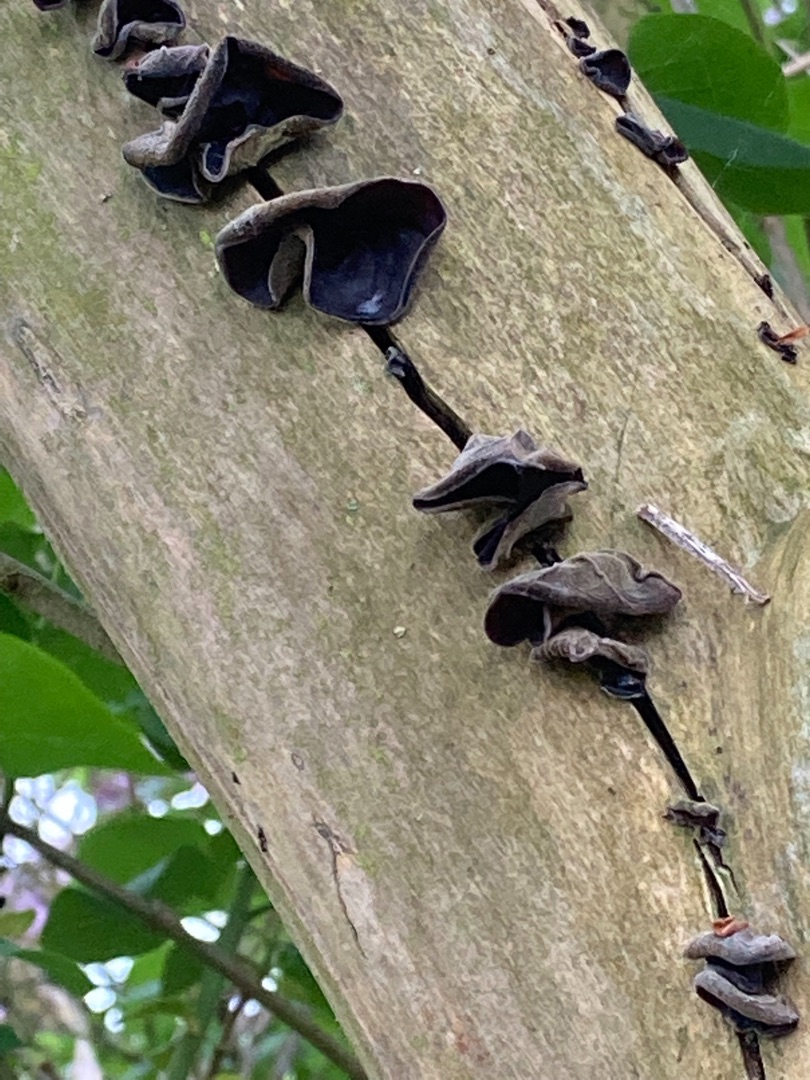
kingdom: Fungi
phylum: Basidiomycota
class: Agaricomycetes
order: Auriculariales
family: Auriculariaceae
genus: Auricularia
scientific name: Auricularia auricula-judae
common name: Almindelig judasøre
